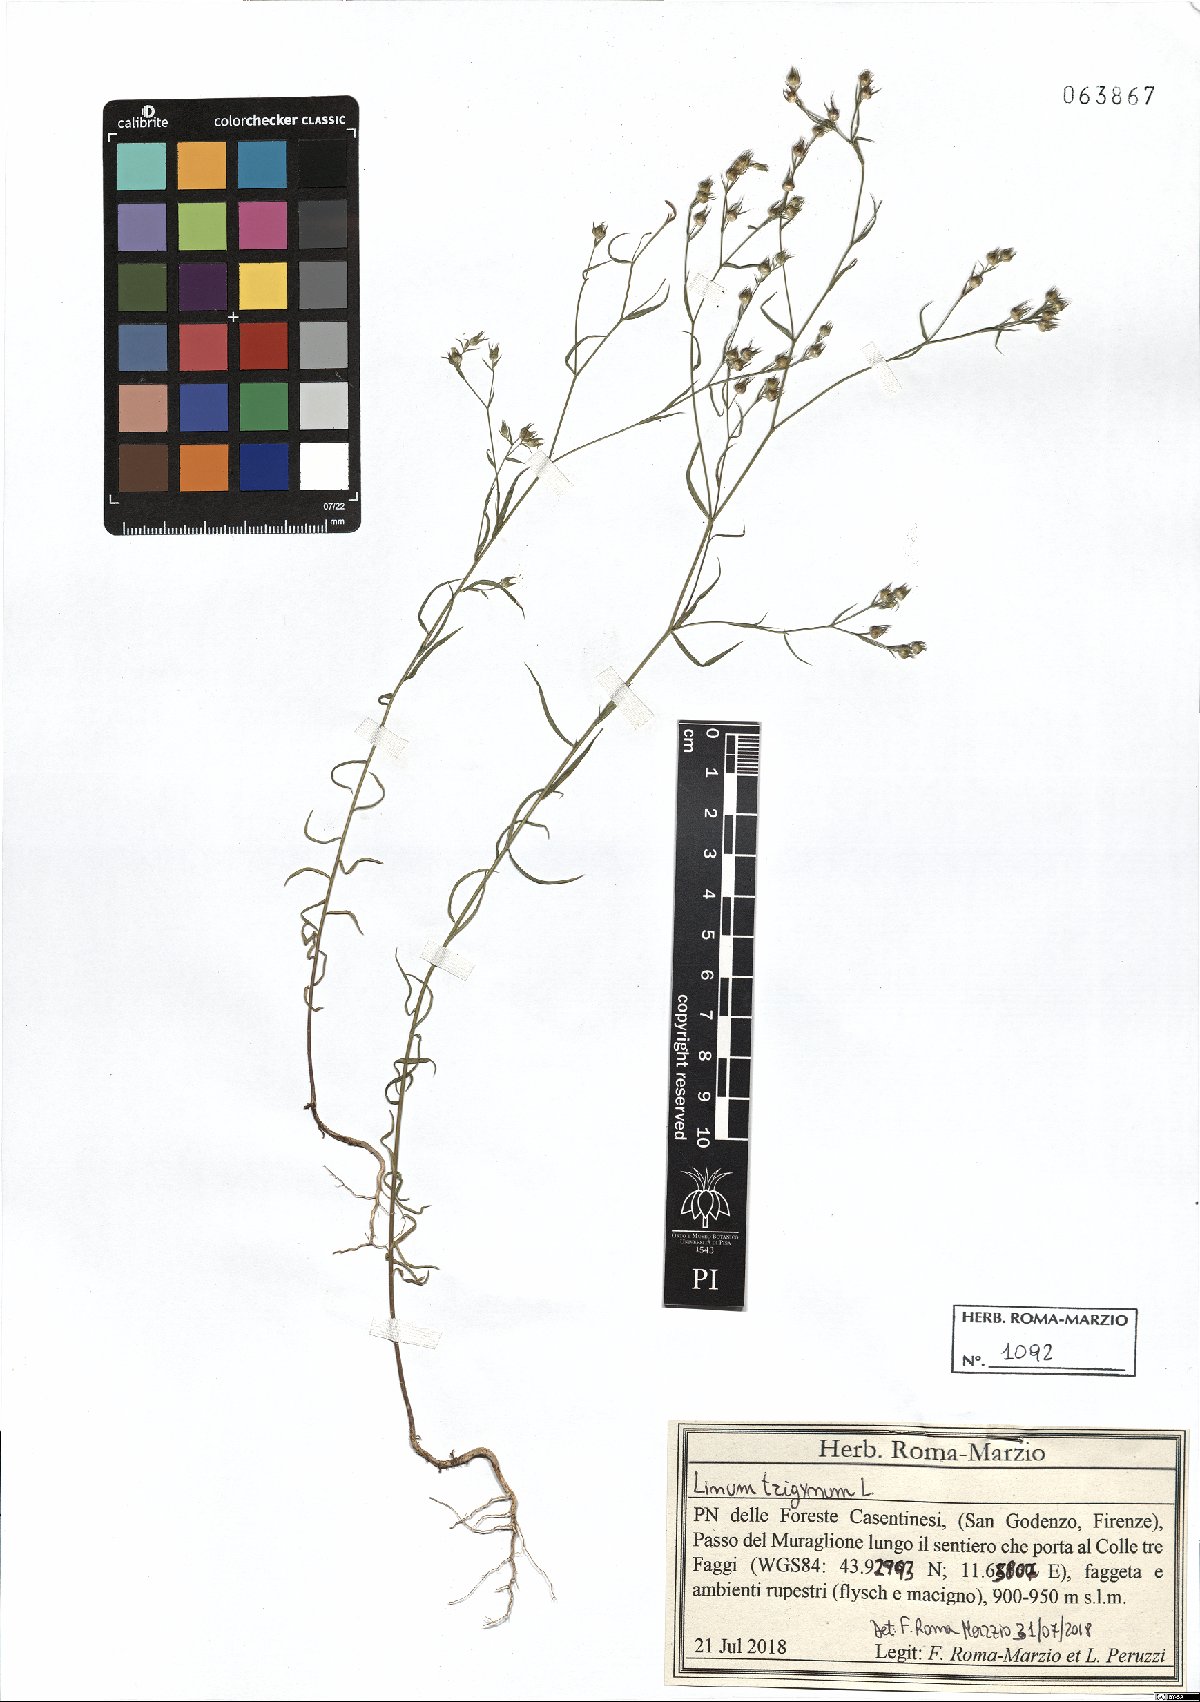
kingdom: Plantae
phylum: Tracheophyta
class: Magnoliopsida
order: Malpighiales
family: Linaceae
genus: Linum
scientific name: Linum trigynum
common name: French flax
